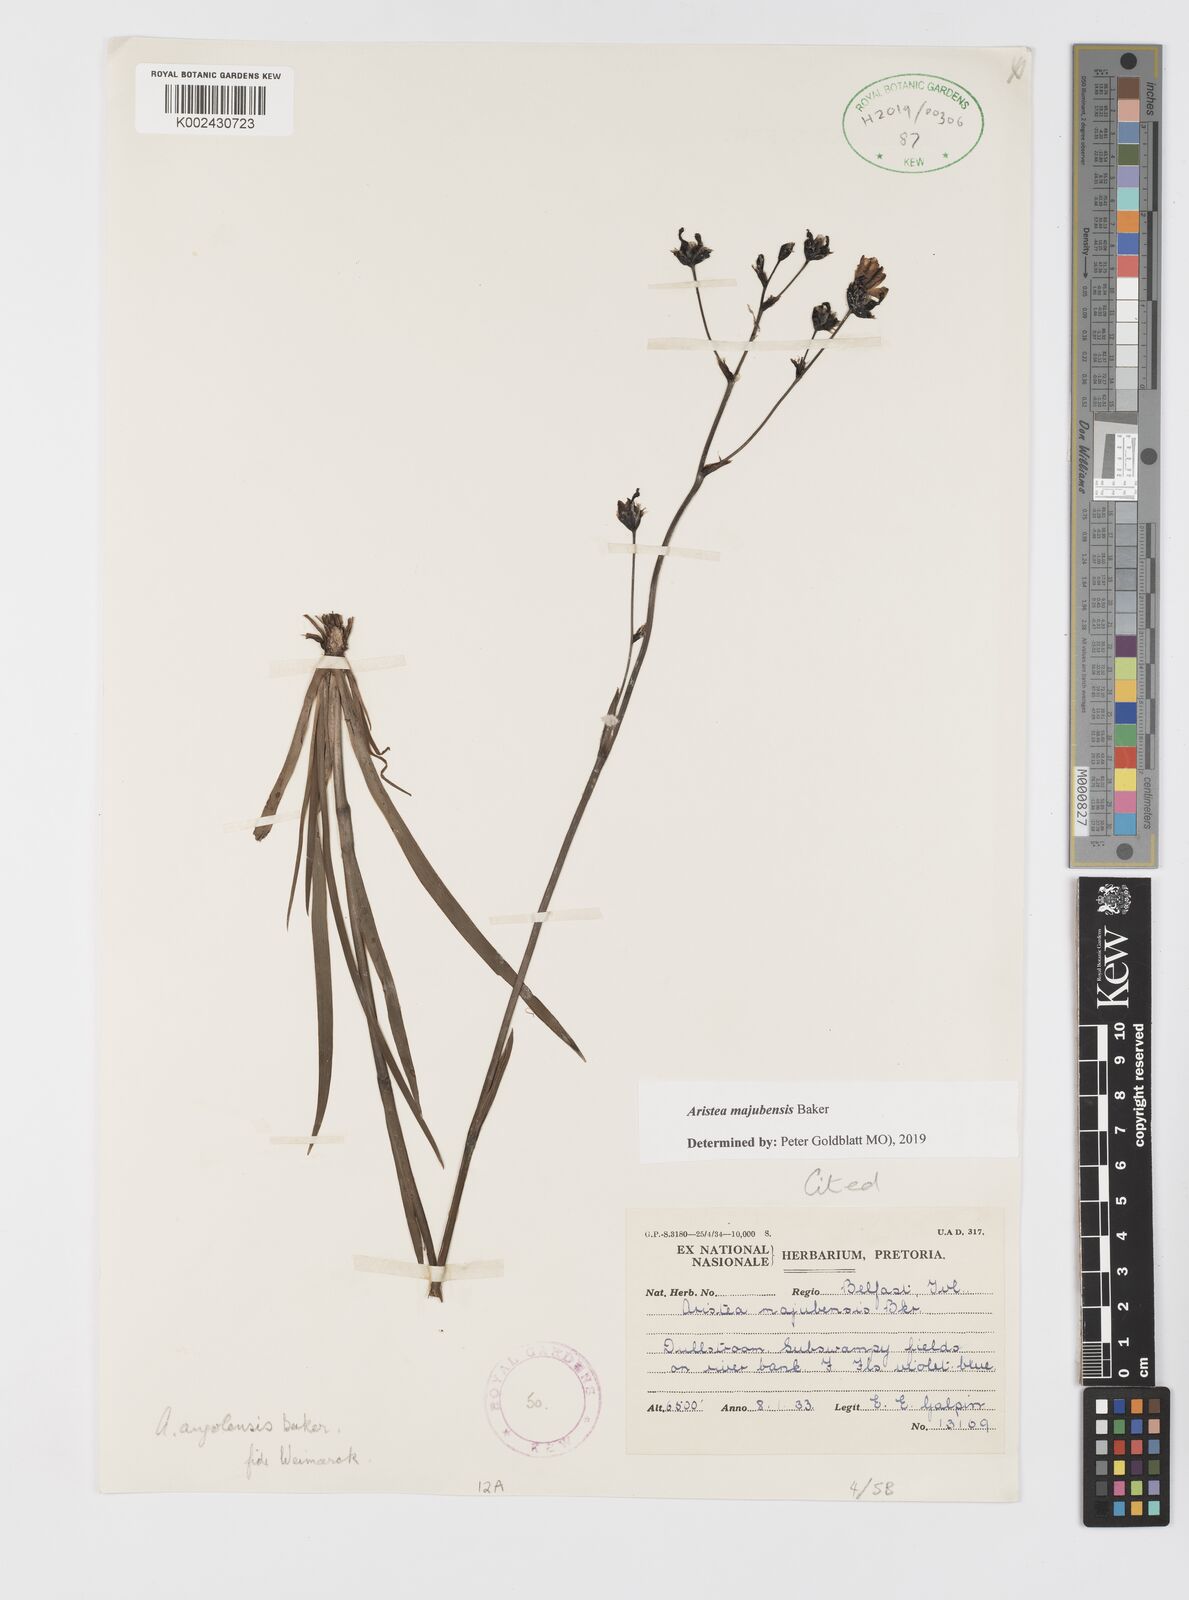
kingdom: Plantae
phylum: Tracheophyta
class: Liliopsida
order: Asparagales
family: Iridaceae
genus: Aristea
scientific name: Aristea majubensis
